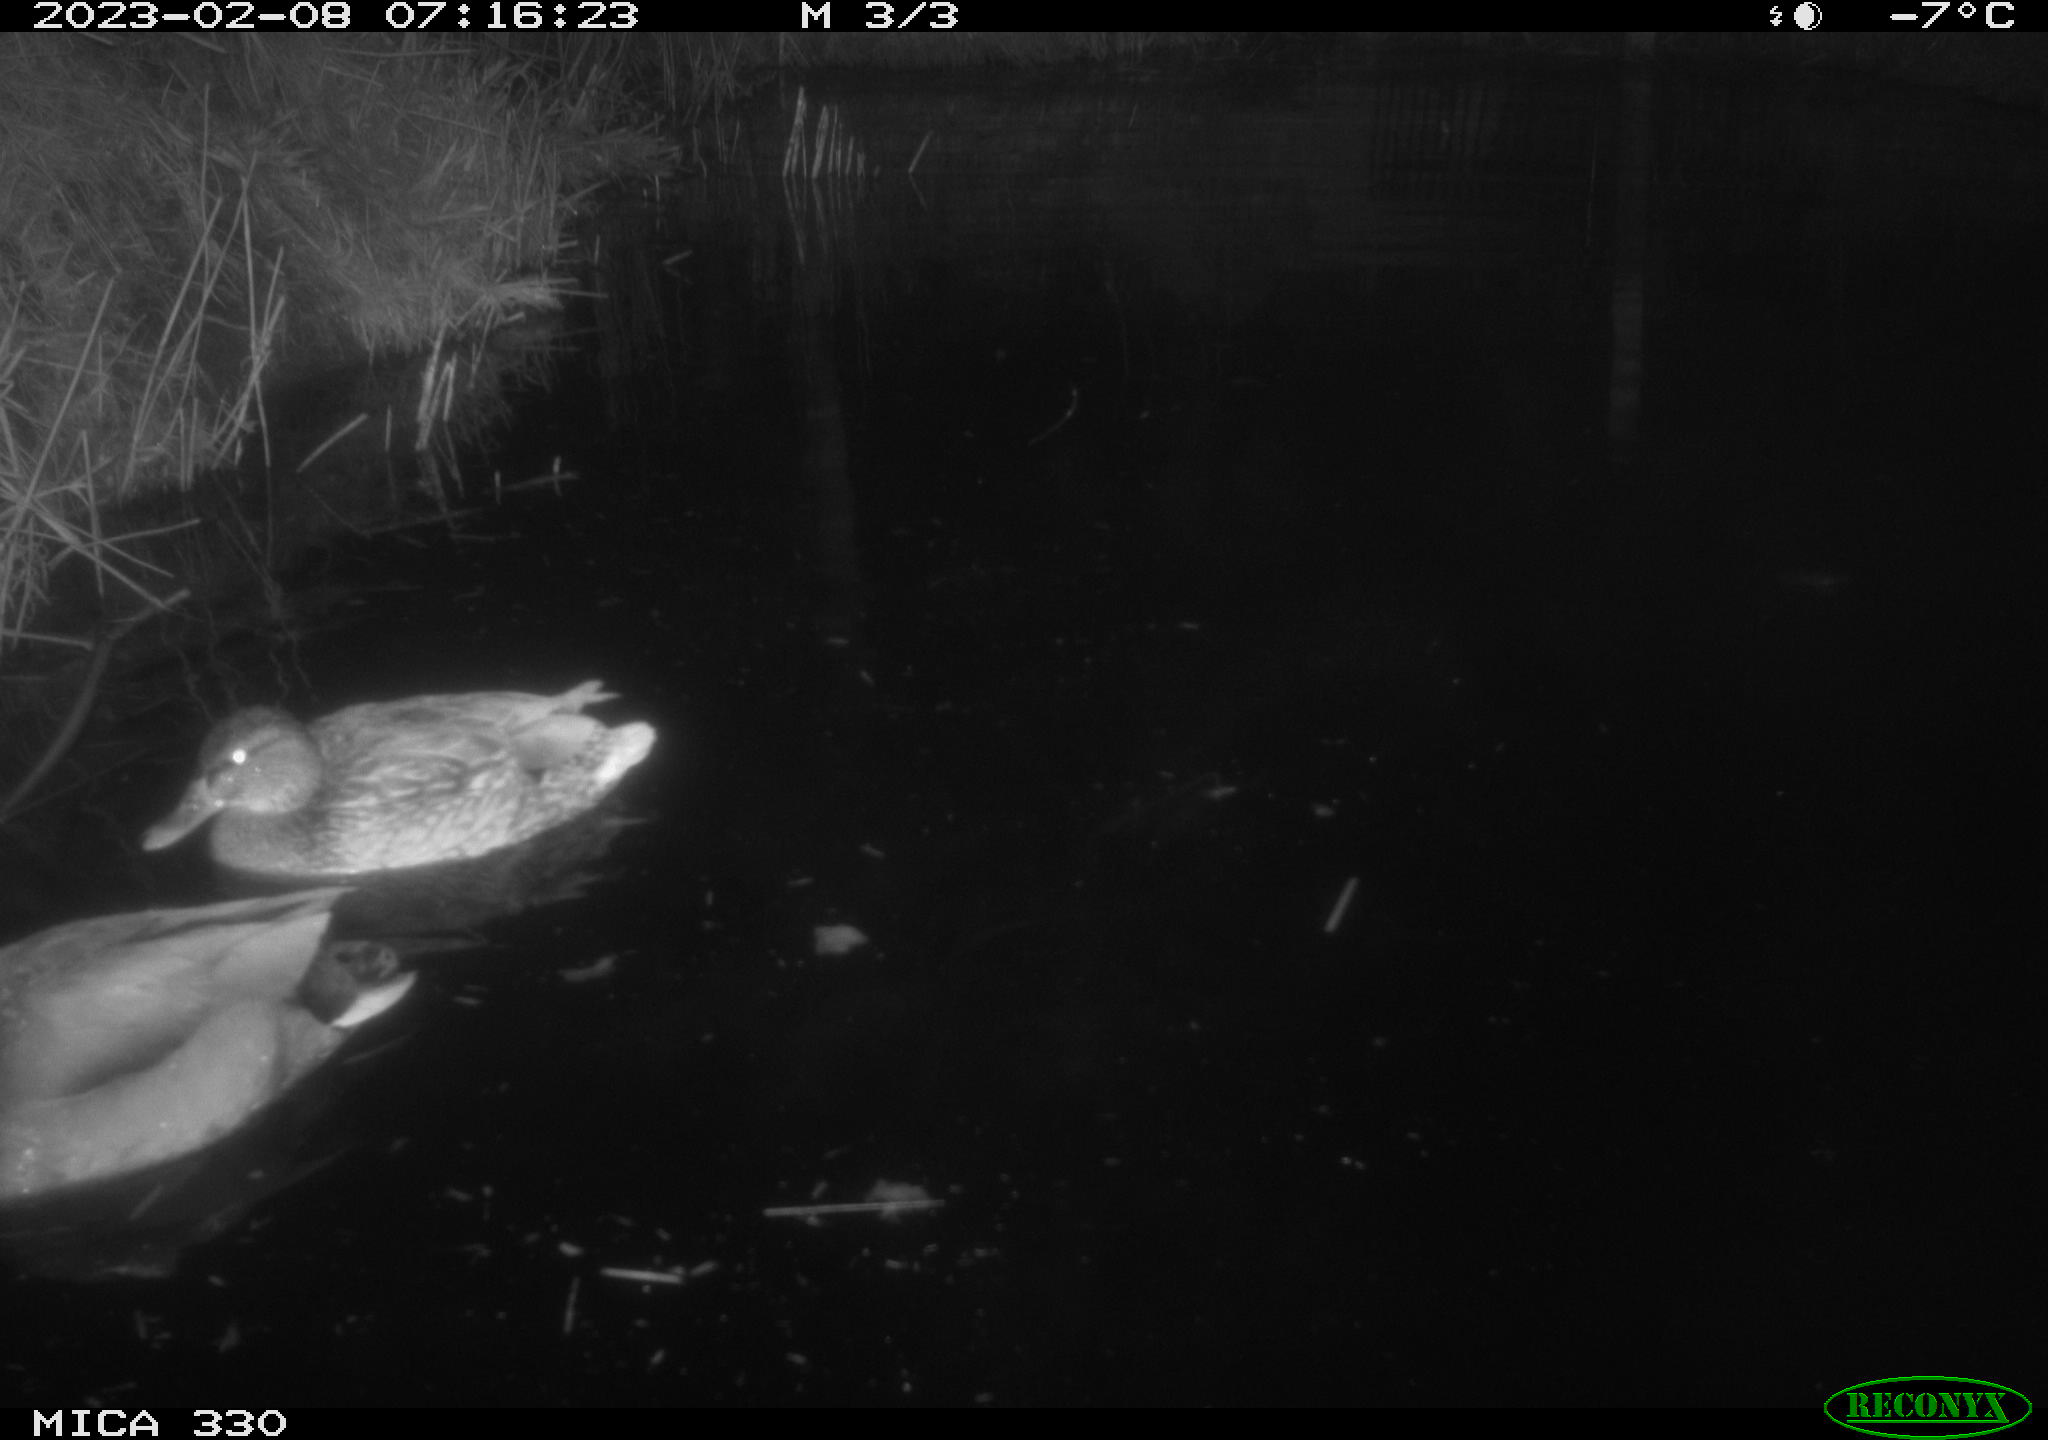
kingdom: Animalia
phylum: Chordata
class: Aves
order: Anseriformes
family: Anatidae
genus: Anas
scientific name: Anas
